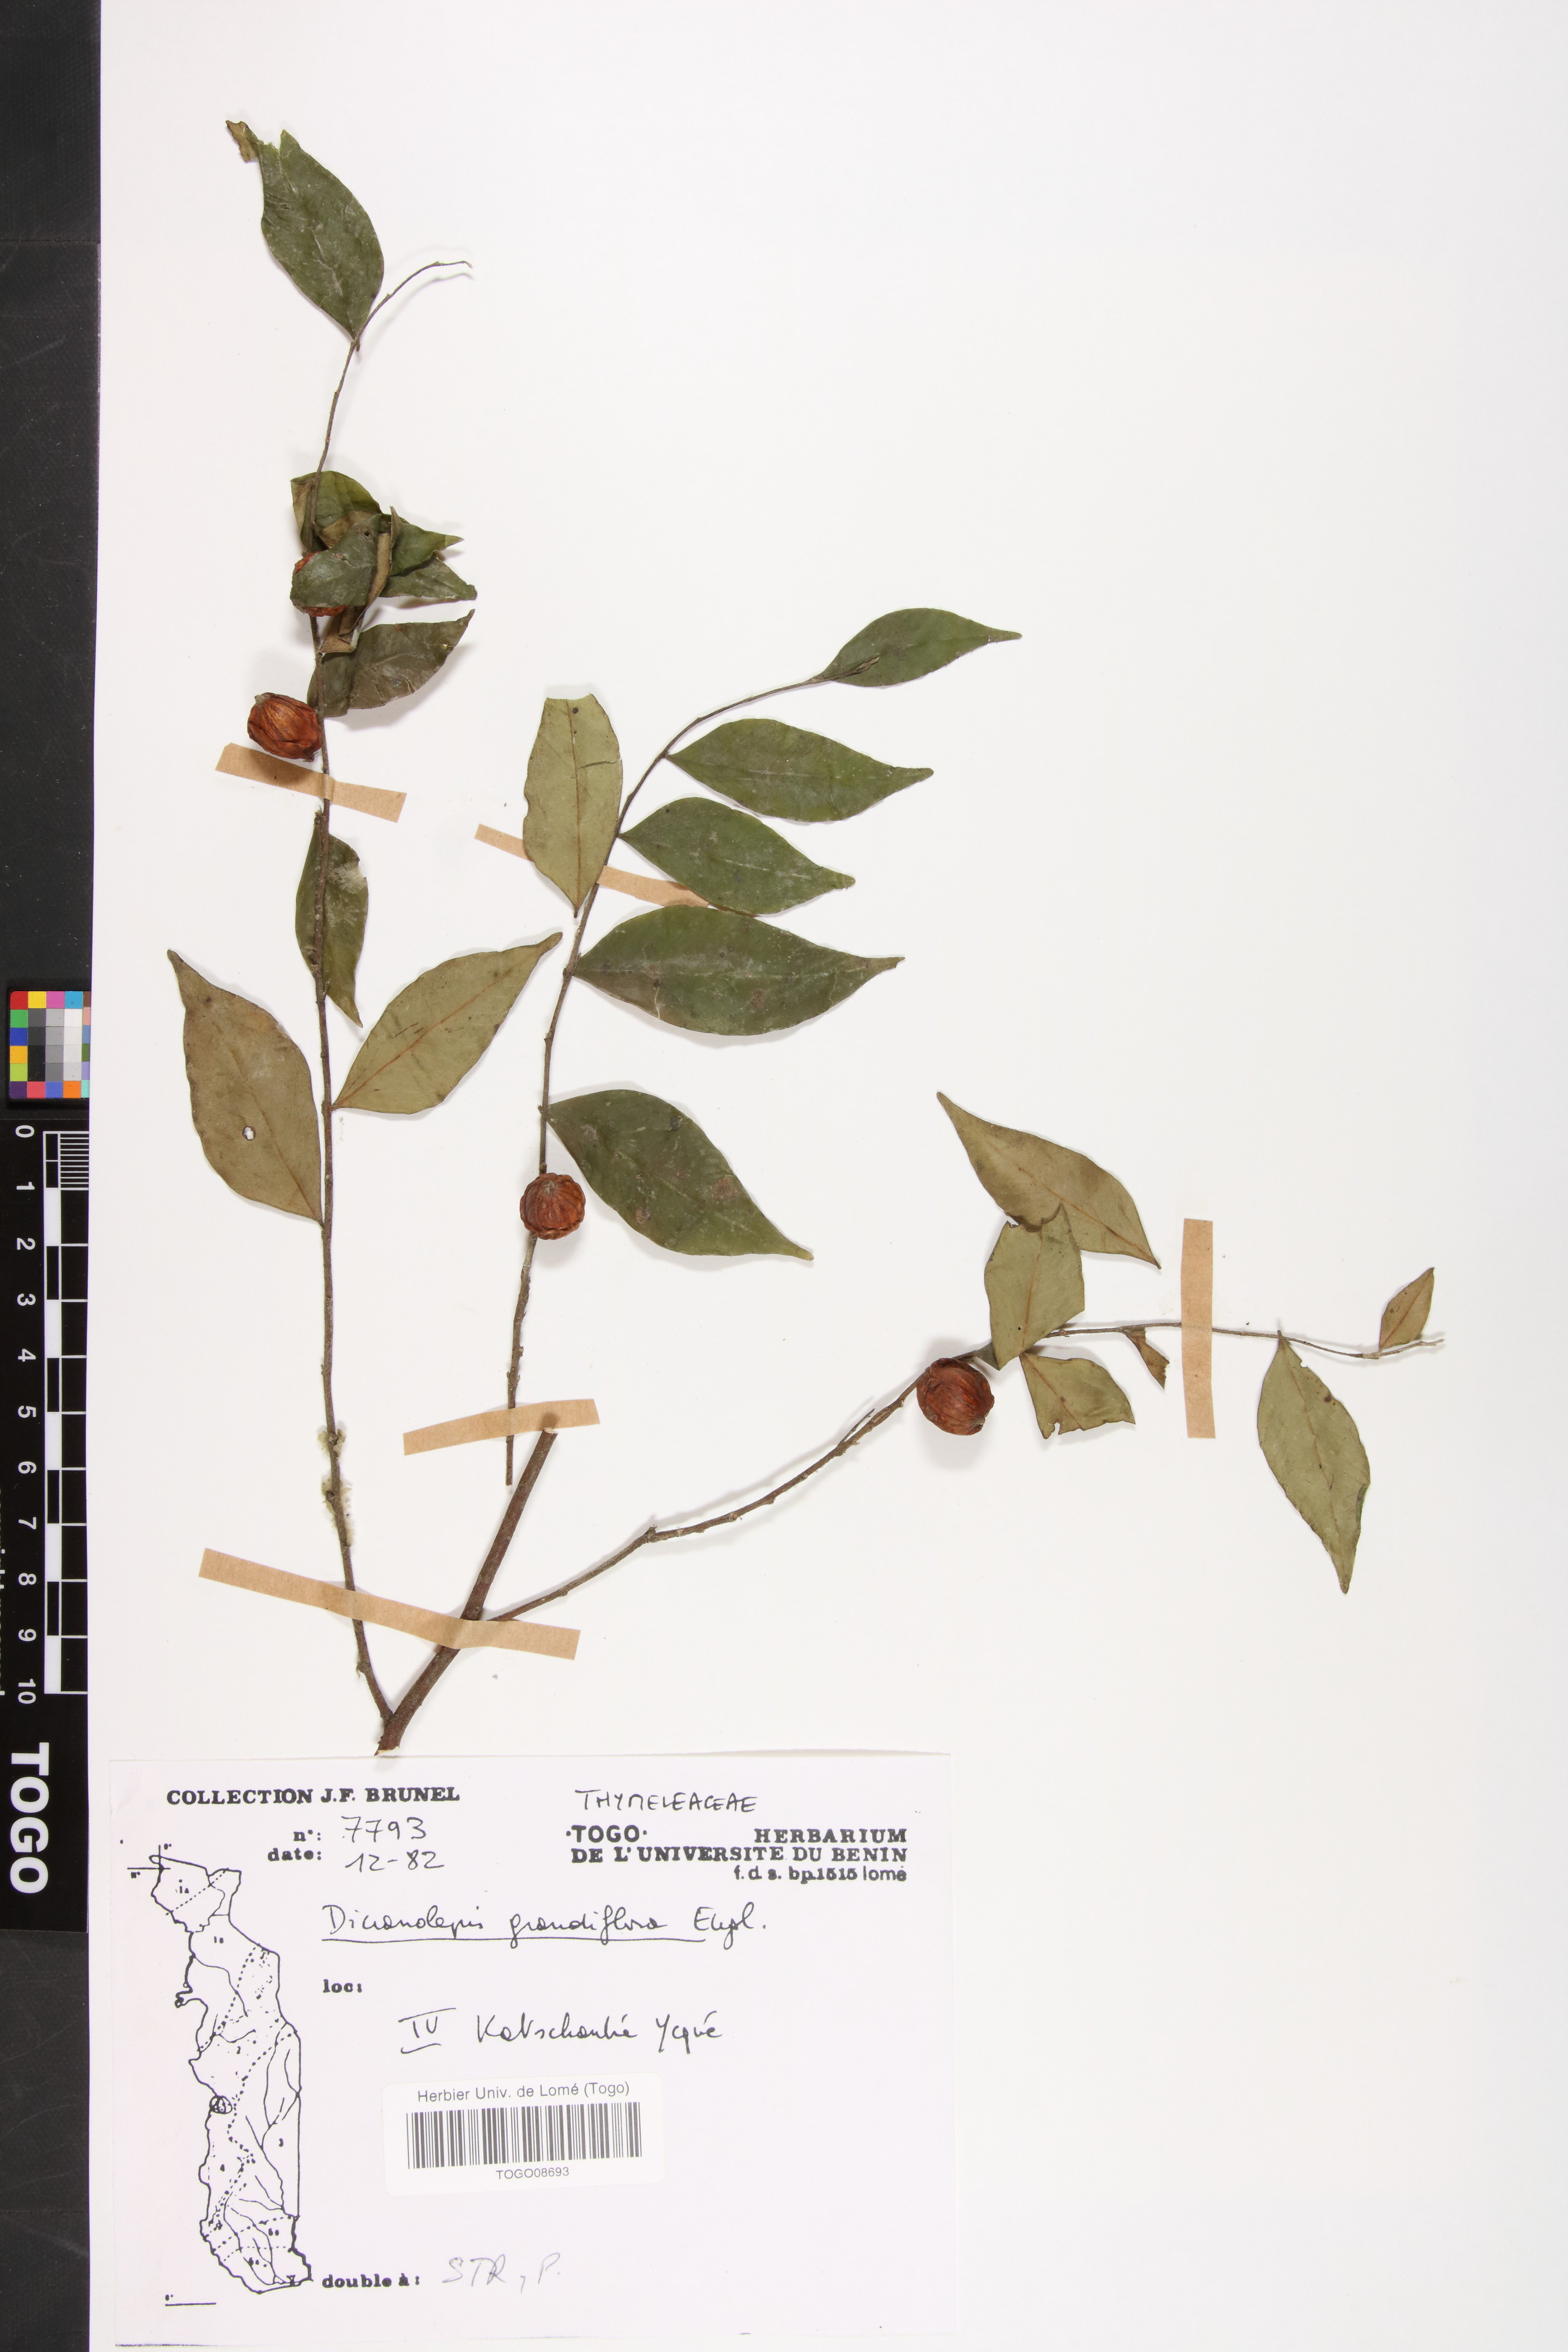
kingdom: Plantae
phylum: Tracheophyta
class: Magnoliopsida
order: Malvales
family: Thymelaeaceae
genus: Dicranolepis
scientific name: Dicranolepis grandiflora
